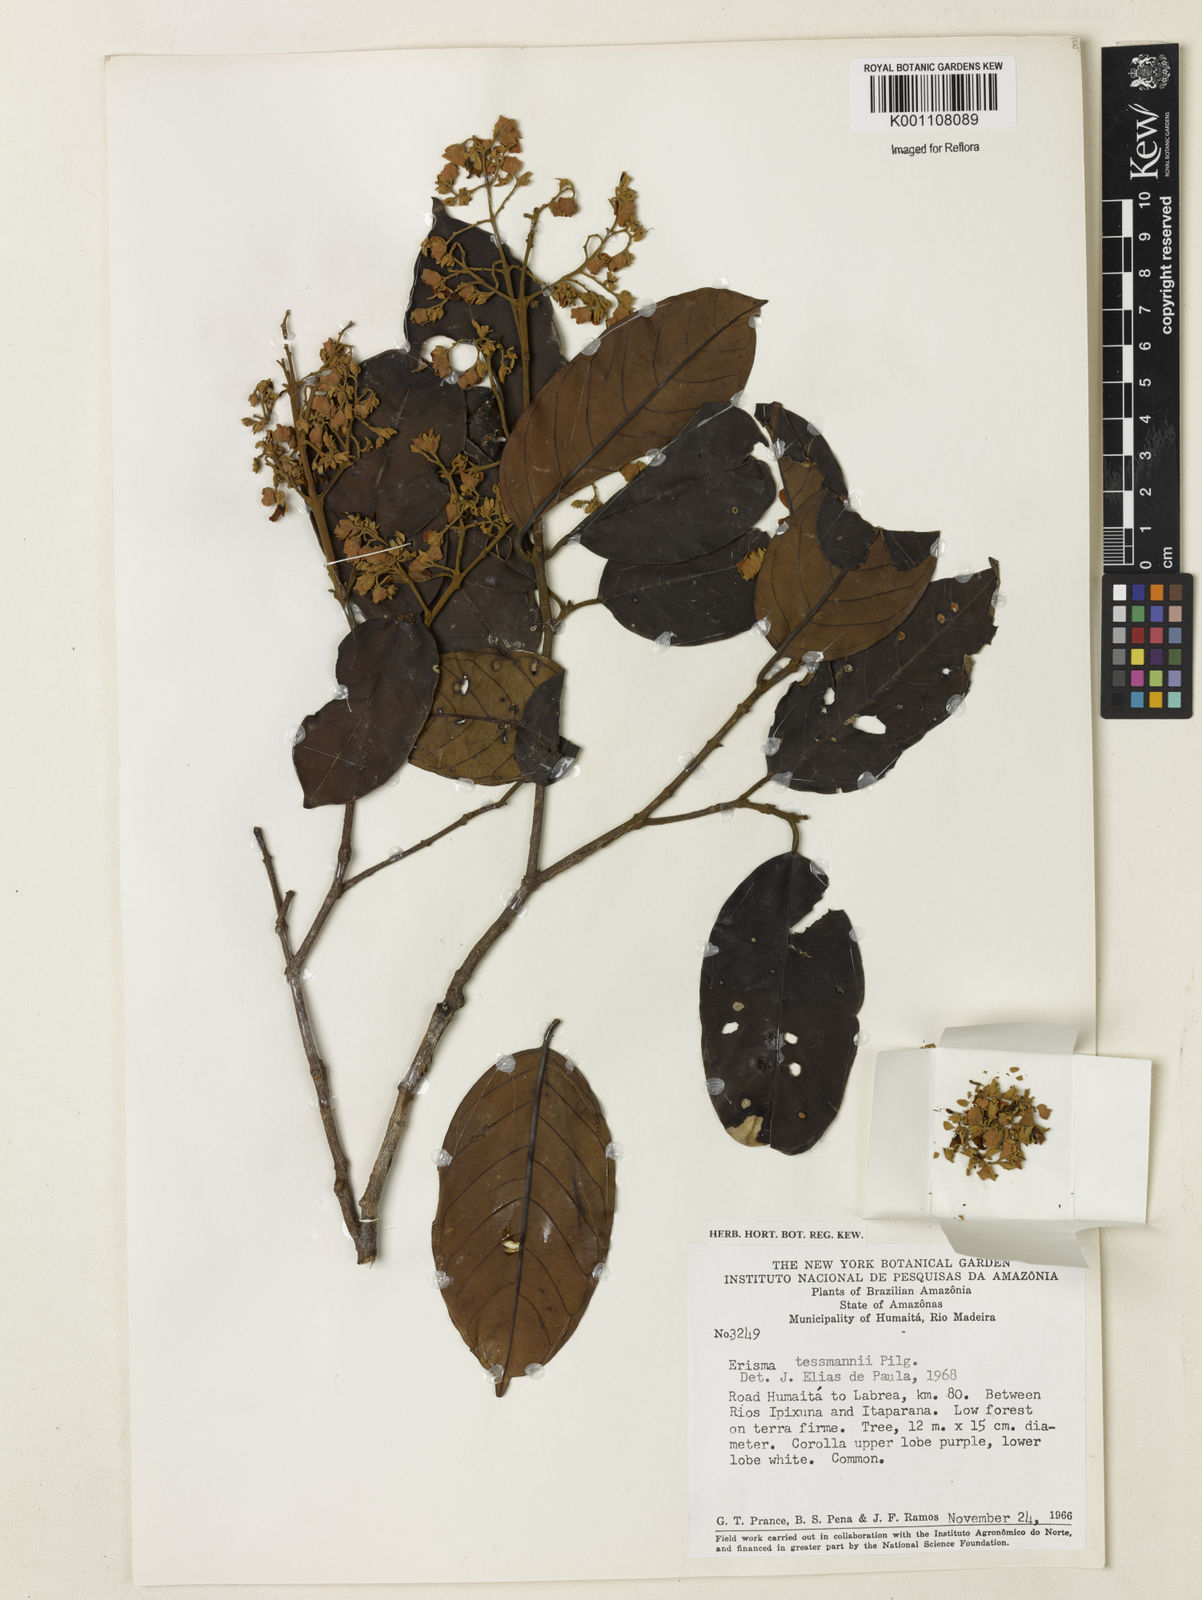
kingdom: Plantae
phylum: Tracheophyta
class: Magnoliopsida
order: Myrtales
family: Vochysiaceae
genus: Erisma
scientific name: Erisma tessmannii
